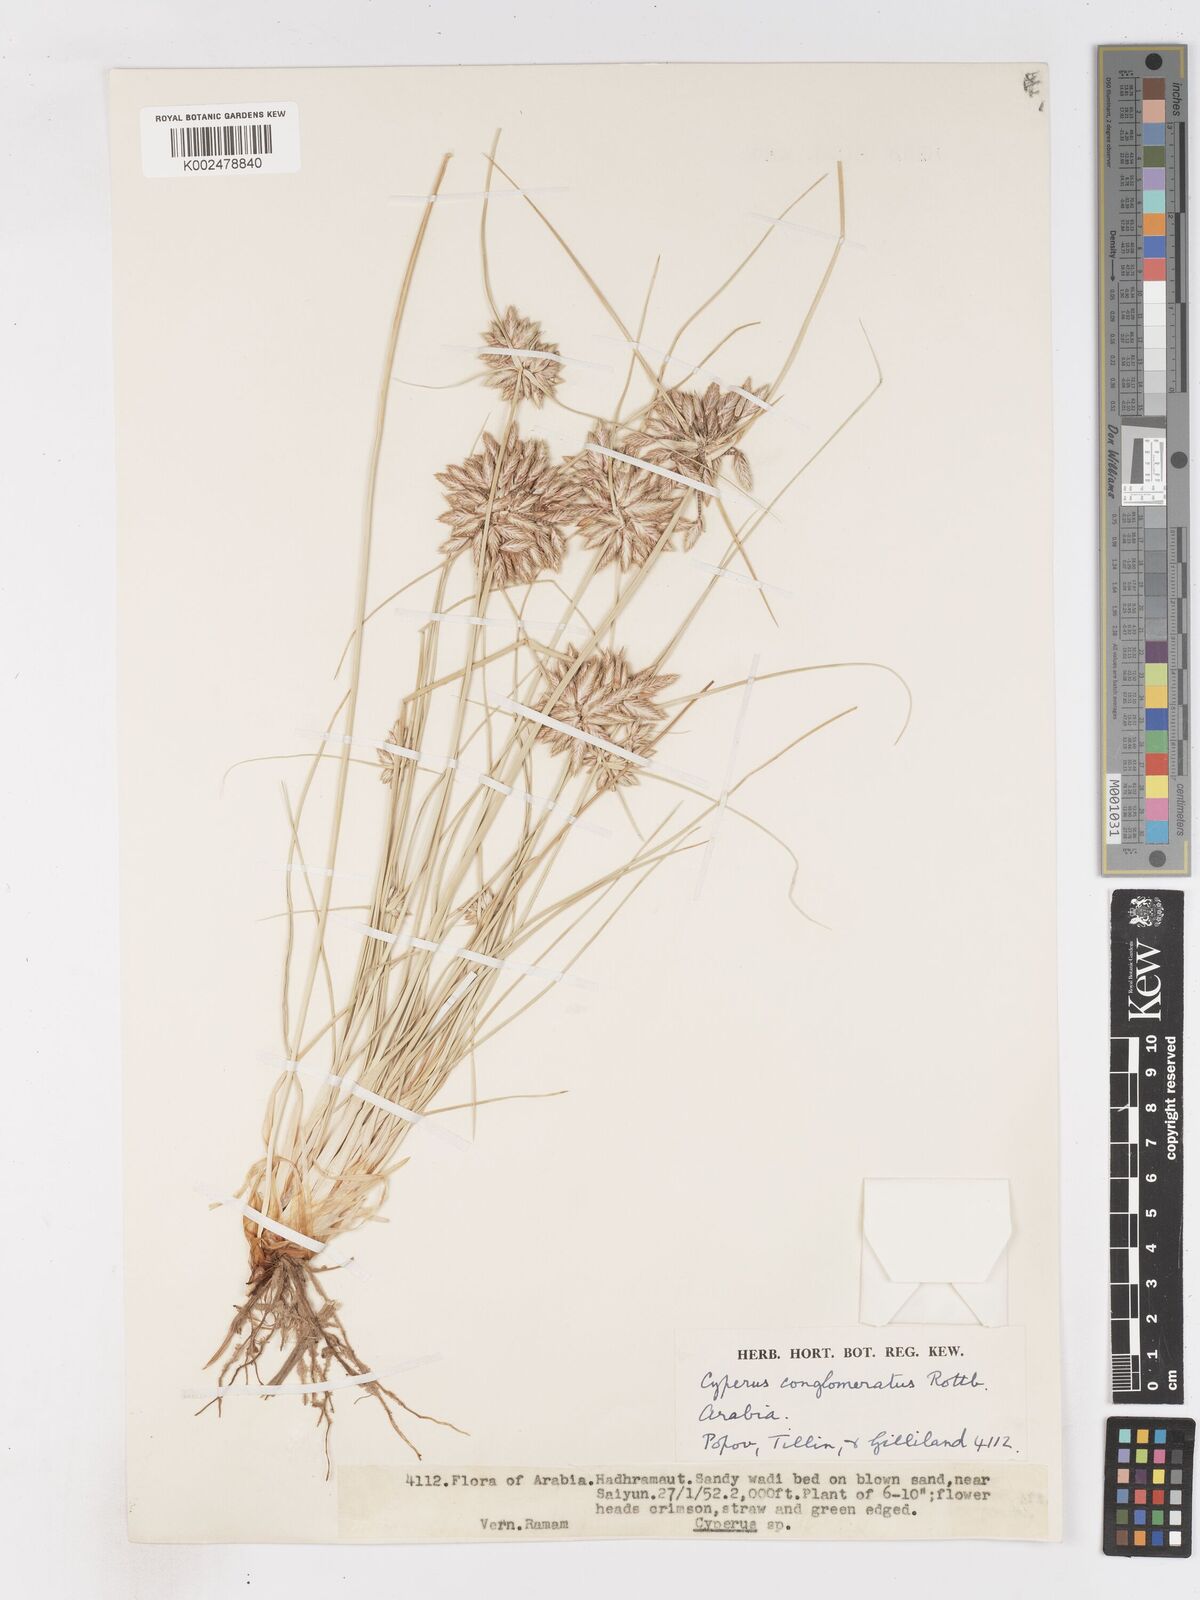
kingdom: Plantae
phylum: Tracheophyta
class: Liliopsida
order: Poales
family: Cyperaceae
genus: Cyperus
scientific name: Cyperus aucheri
